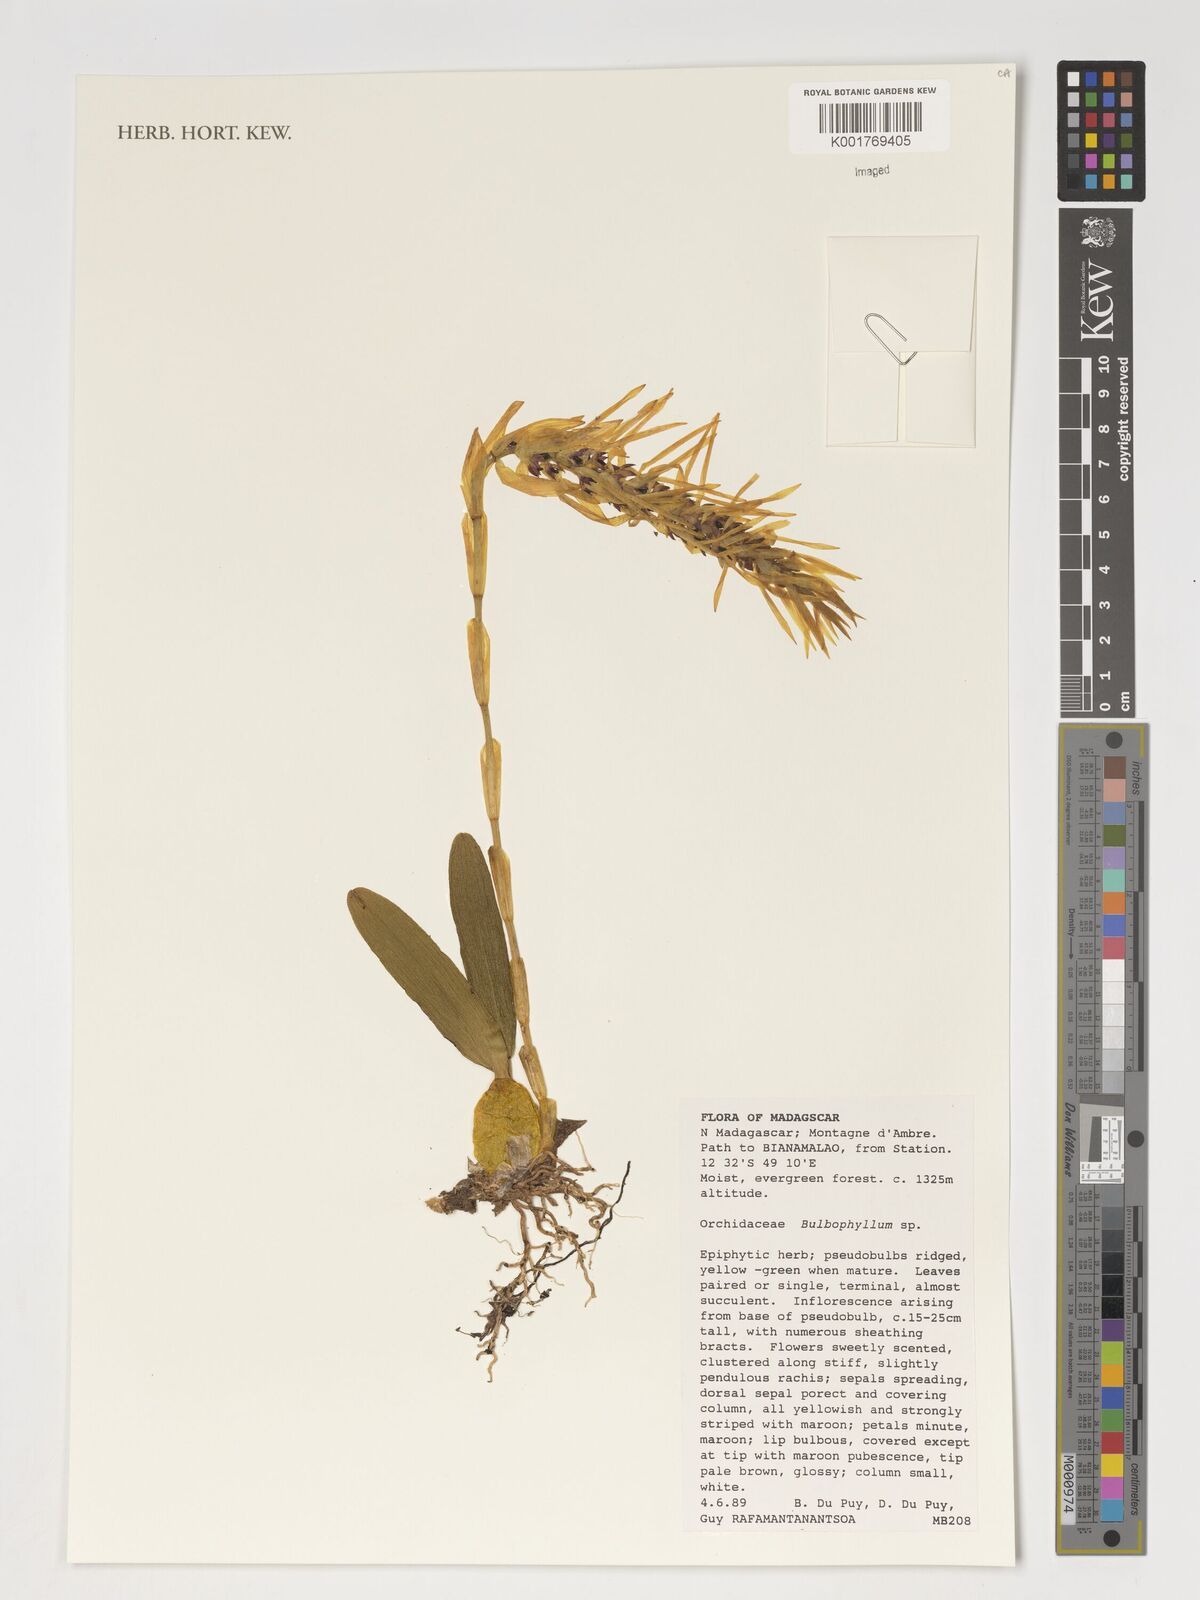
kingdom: Plantae
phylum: Tracheophyta
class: Liliopsida
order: Asparagales
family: Orchidaceae
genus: Bulbophyllum
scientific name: Bulbophyllum
